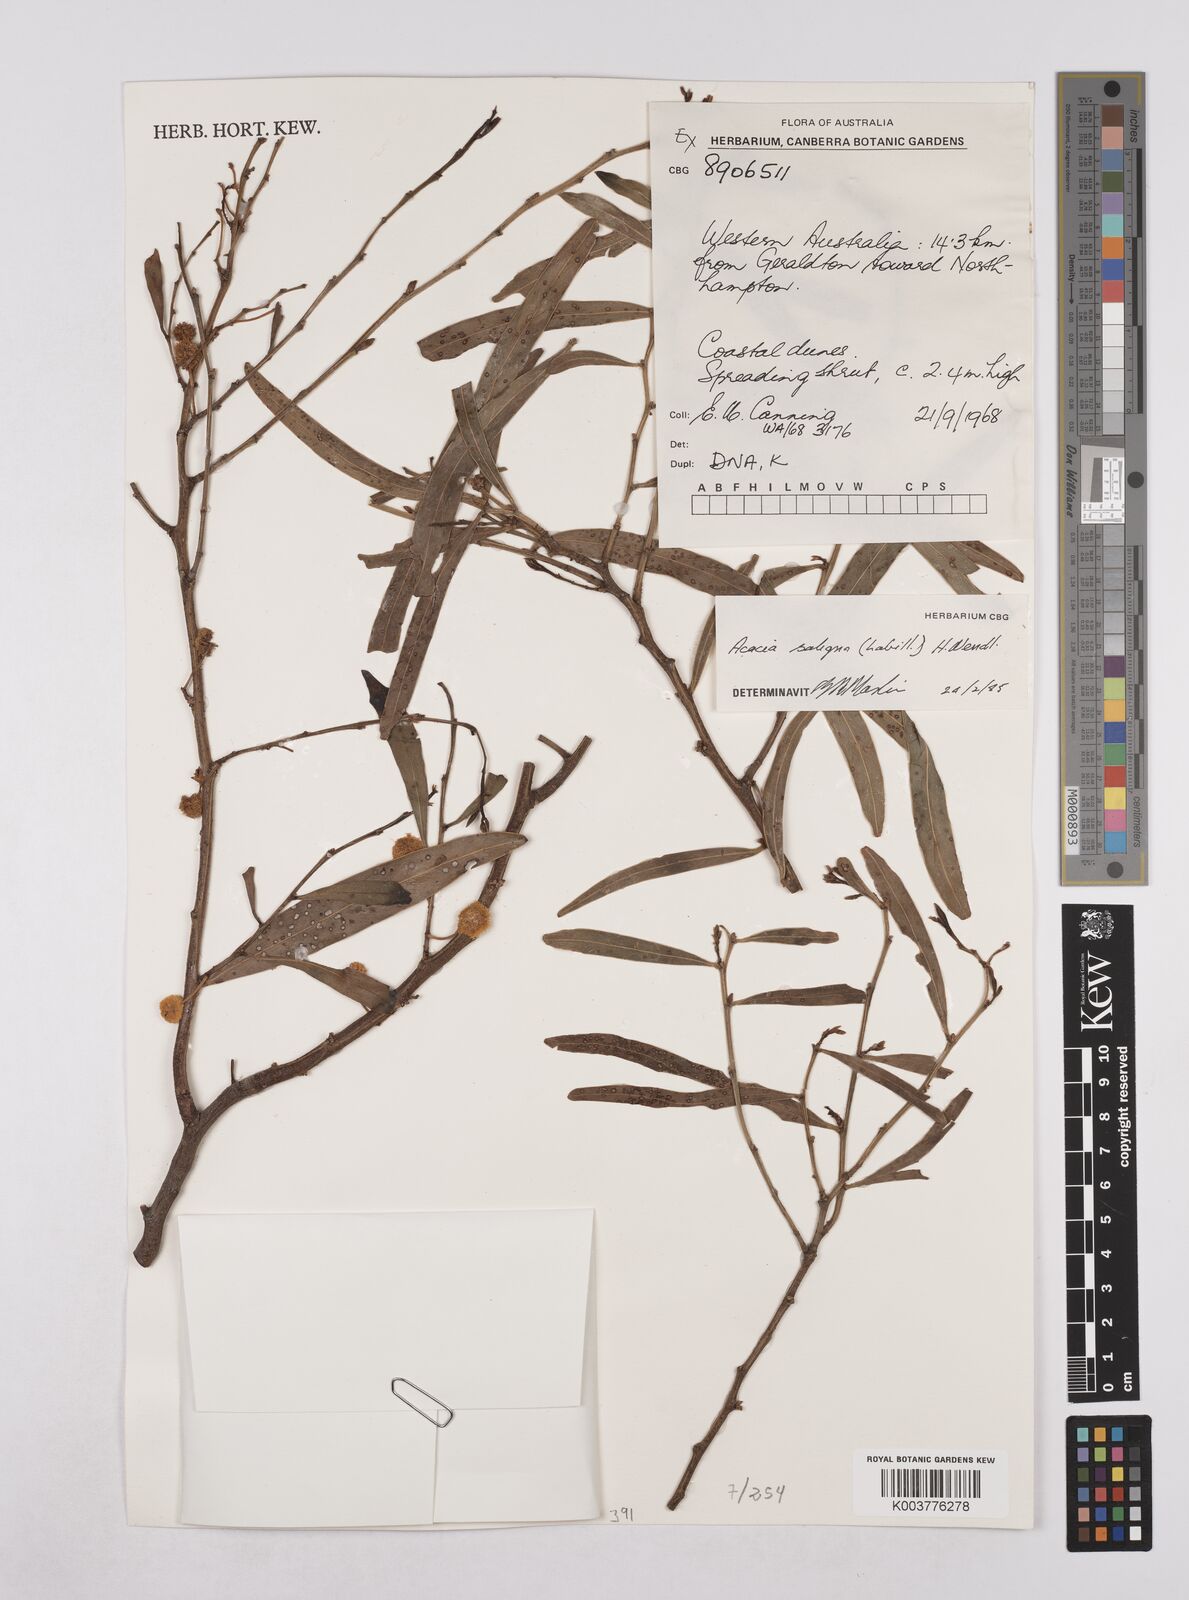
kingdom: Plantae
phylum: Tracheophyta
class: Magnoliopsida
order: Fabales
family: Fabaceae
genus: Acacia
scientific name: Acacia saligna
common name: Orange wattle
